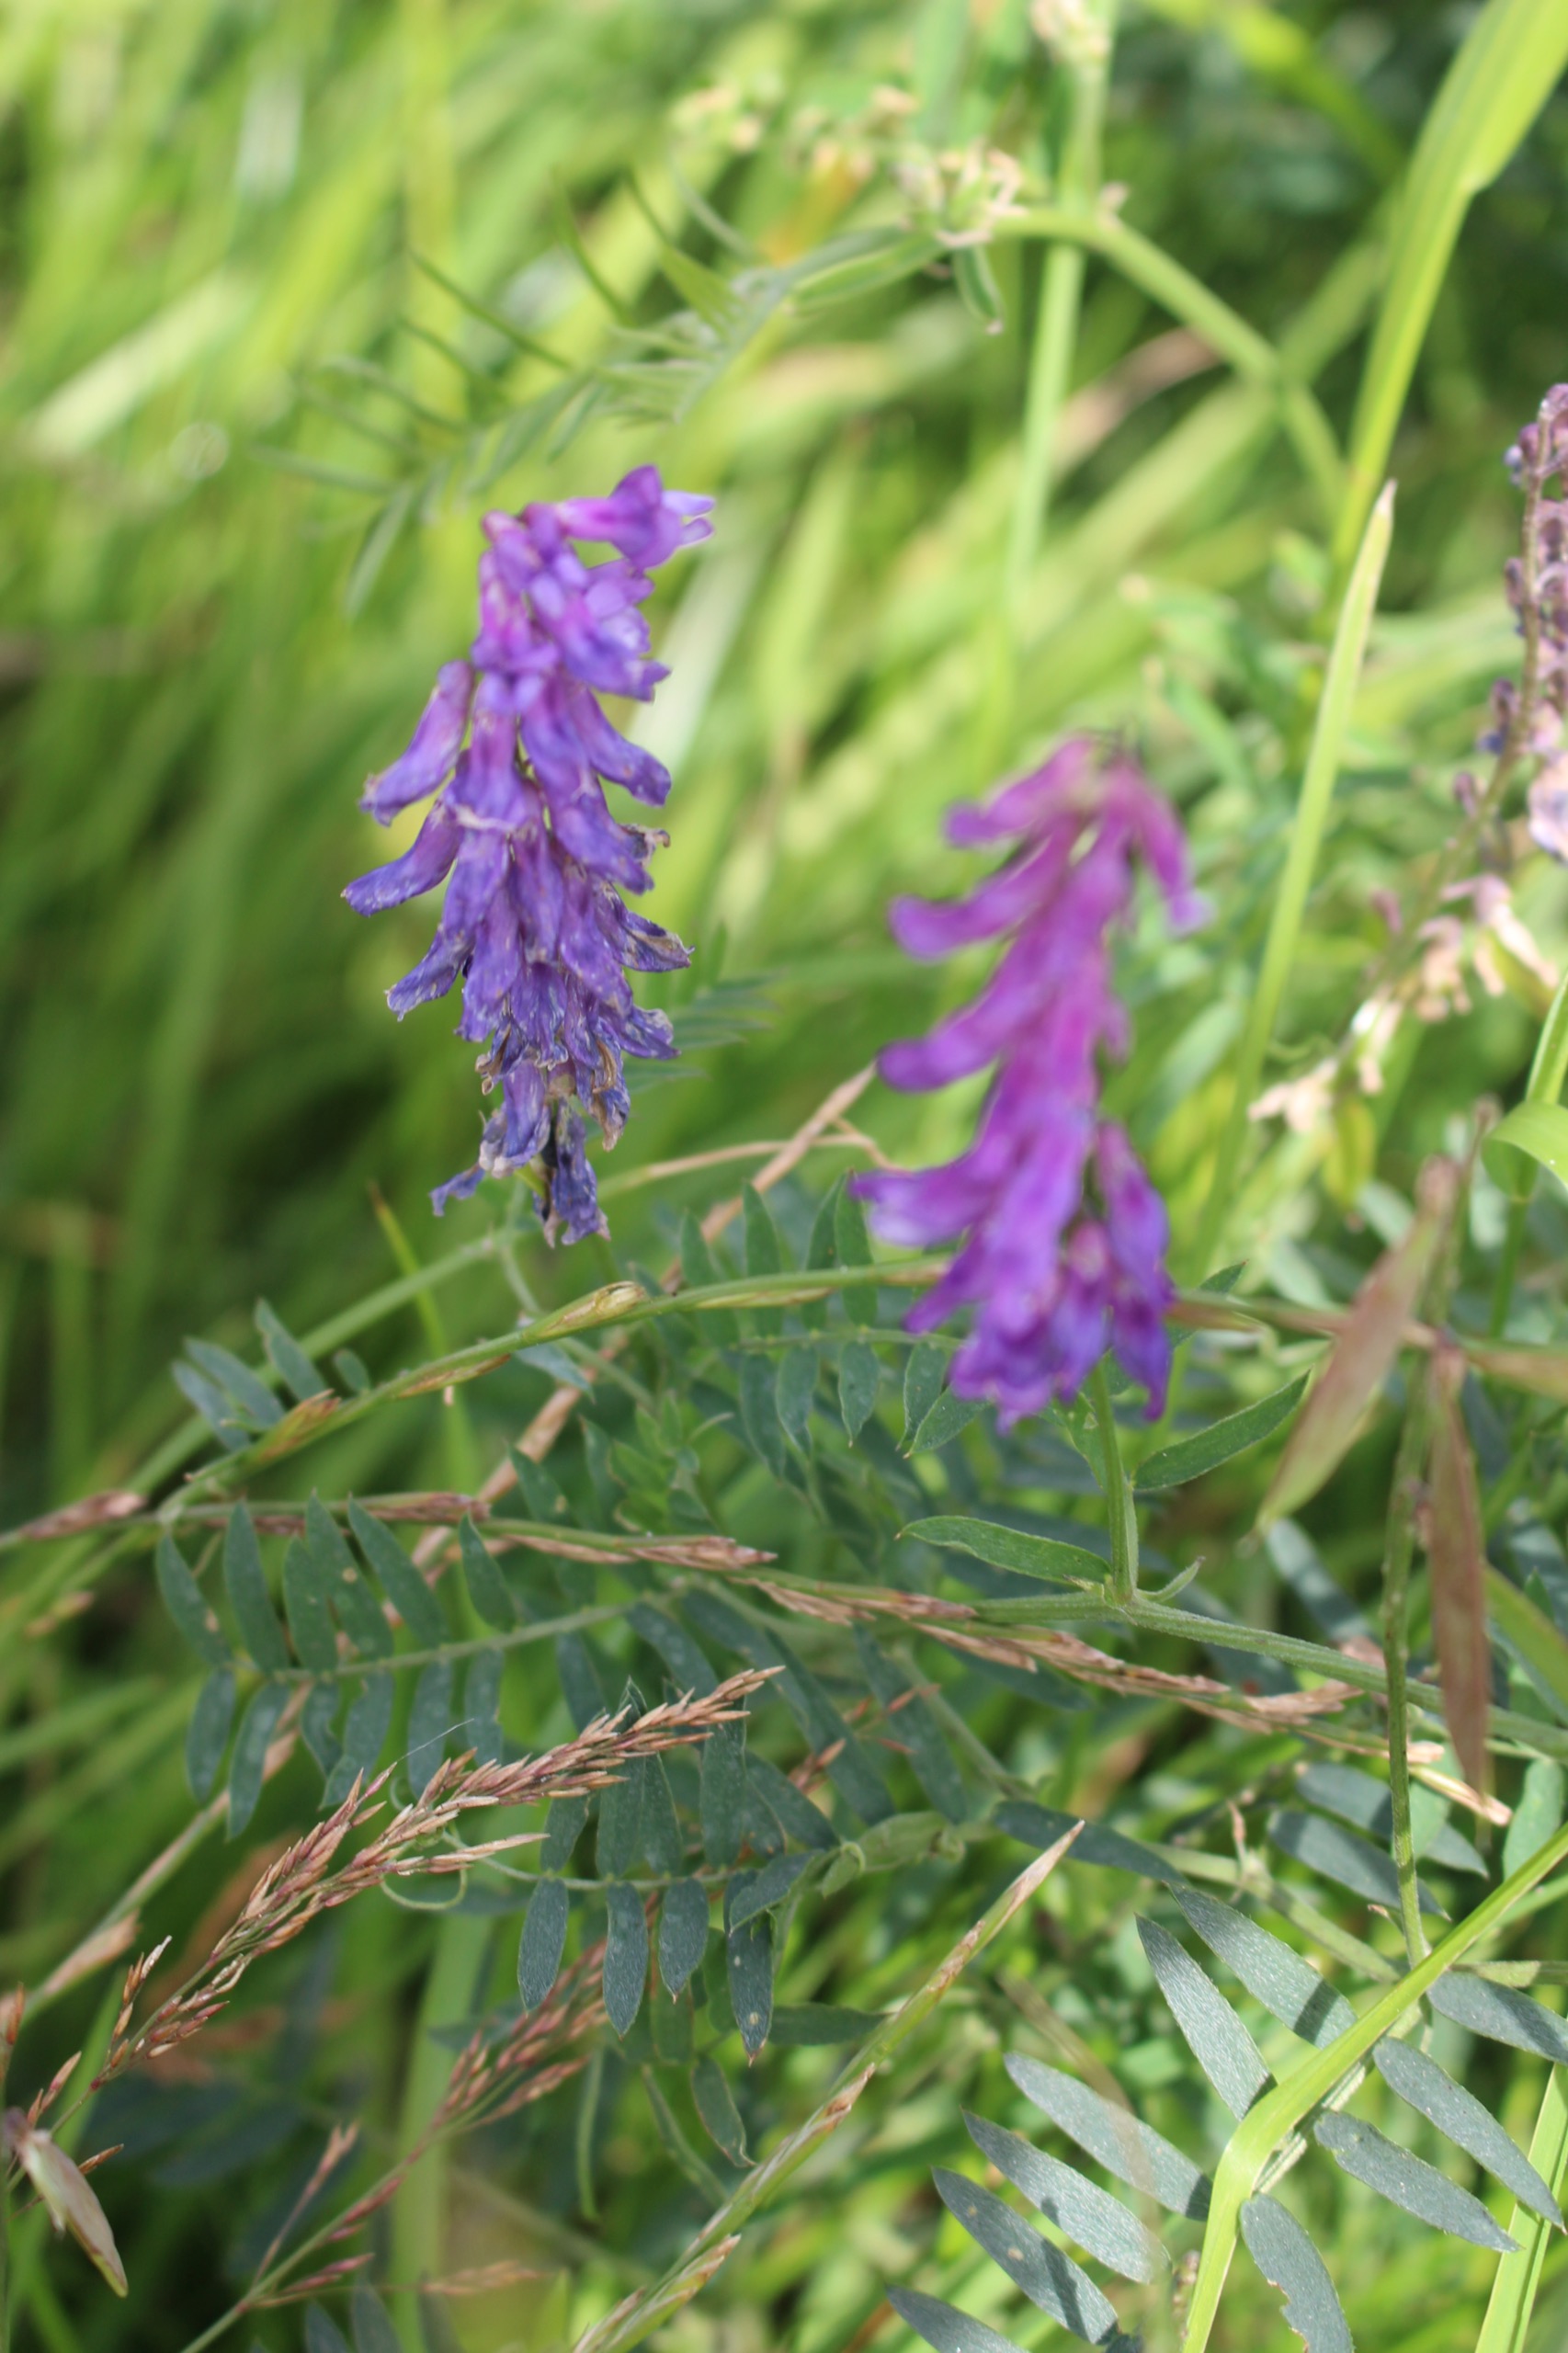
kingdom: Plantae
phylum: Tracheophyta
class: Magnoliopsida
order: Fabales
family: Fabaceae
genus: Vicia
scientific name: Vicia cracca
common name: Muse-vikke
